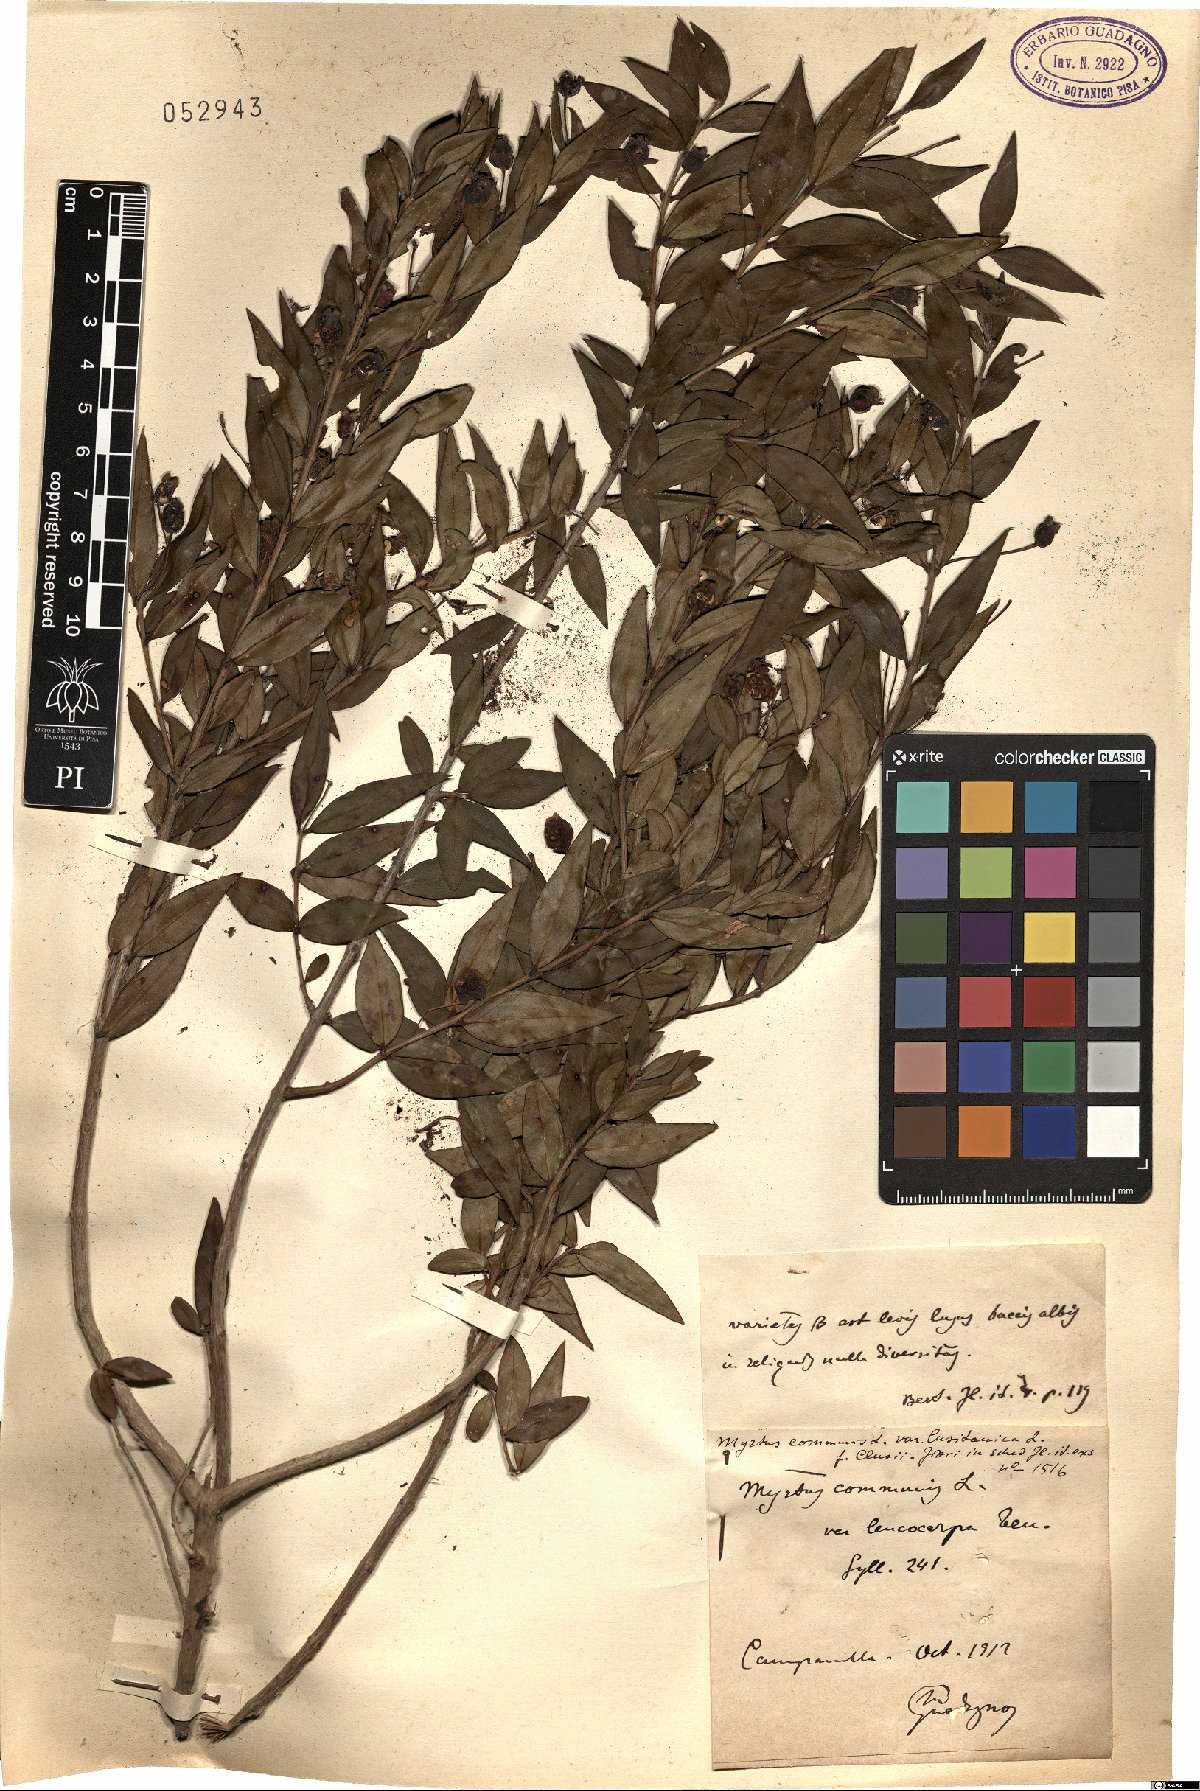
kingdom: Plantae
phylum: Tracheophyta
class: Magnoliopsida
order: Myrtales
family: Myrtaceae
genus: Myrtus
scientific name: Myrtus communis
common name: Myrtle
